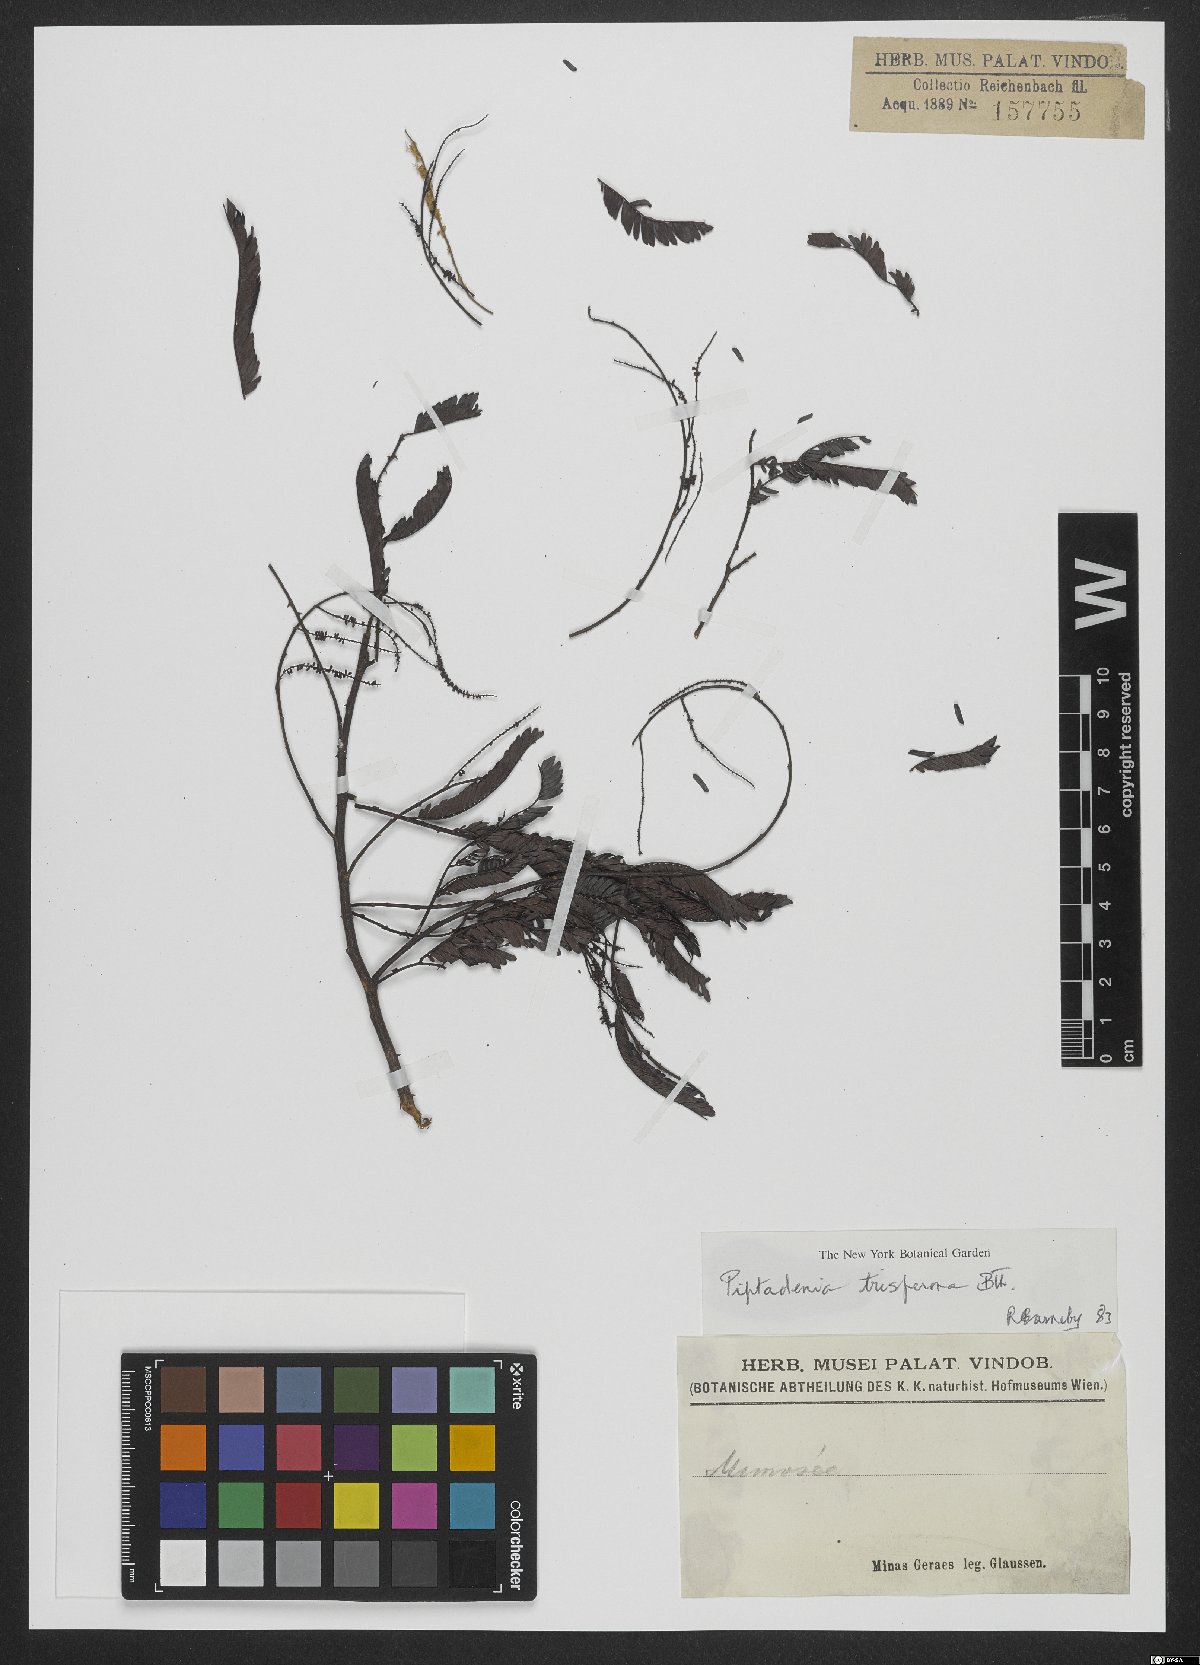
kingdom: Plantae
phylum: Tracheophyta
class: Magnoliopsida
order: Fabales
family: Fabaceae
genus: Piptadenia
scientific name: Piptadenia trisperma
